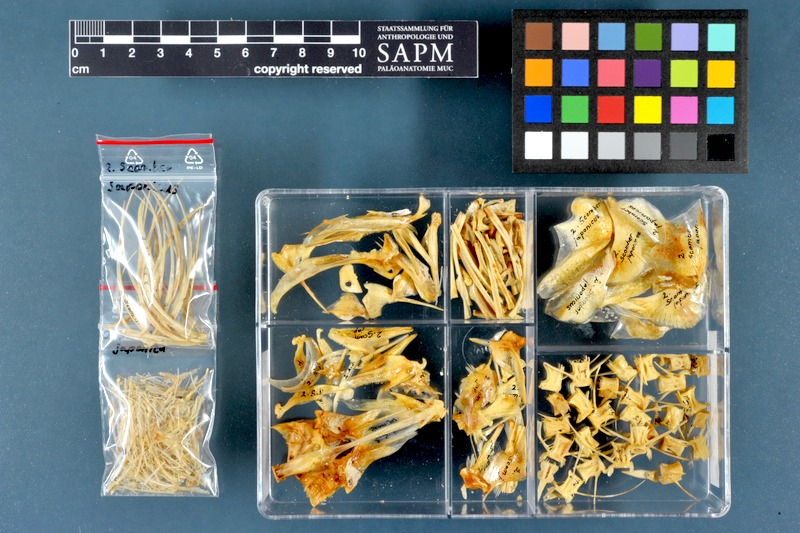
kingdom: Animalia
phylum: Chordata
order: Perciformes
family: Scombridae
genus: Scomber
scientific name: Scomber japonicus
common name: Chub mackerel
